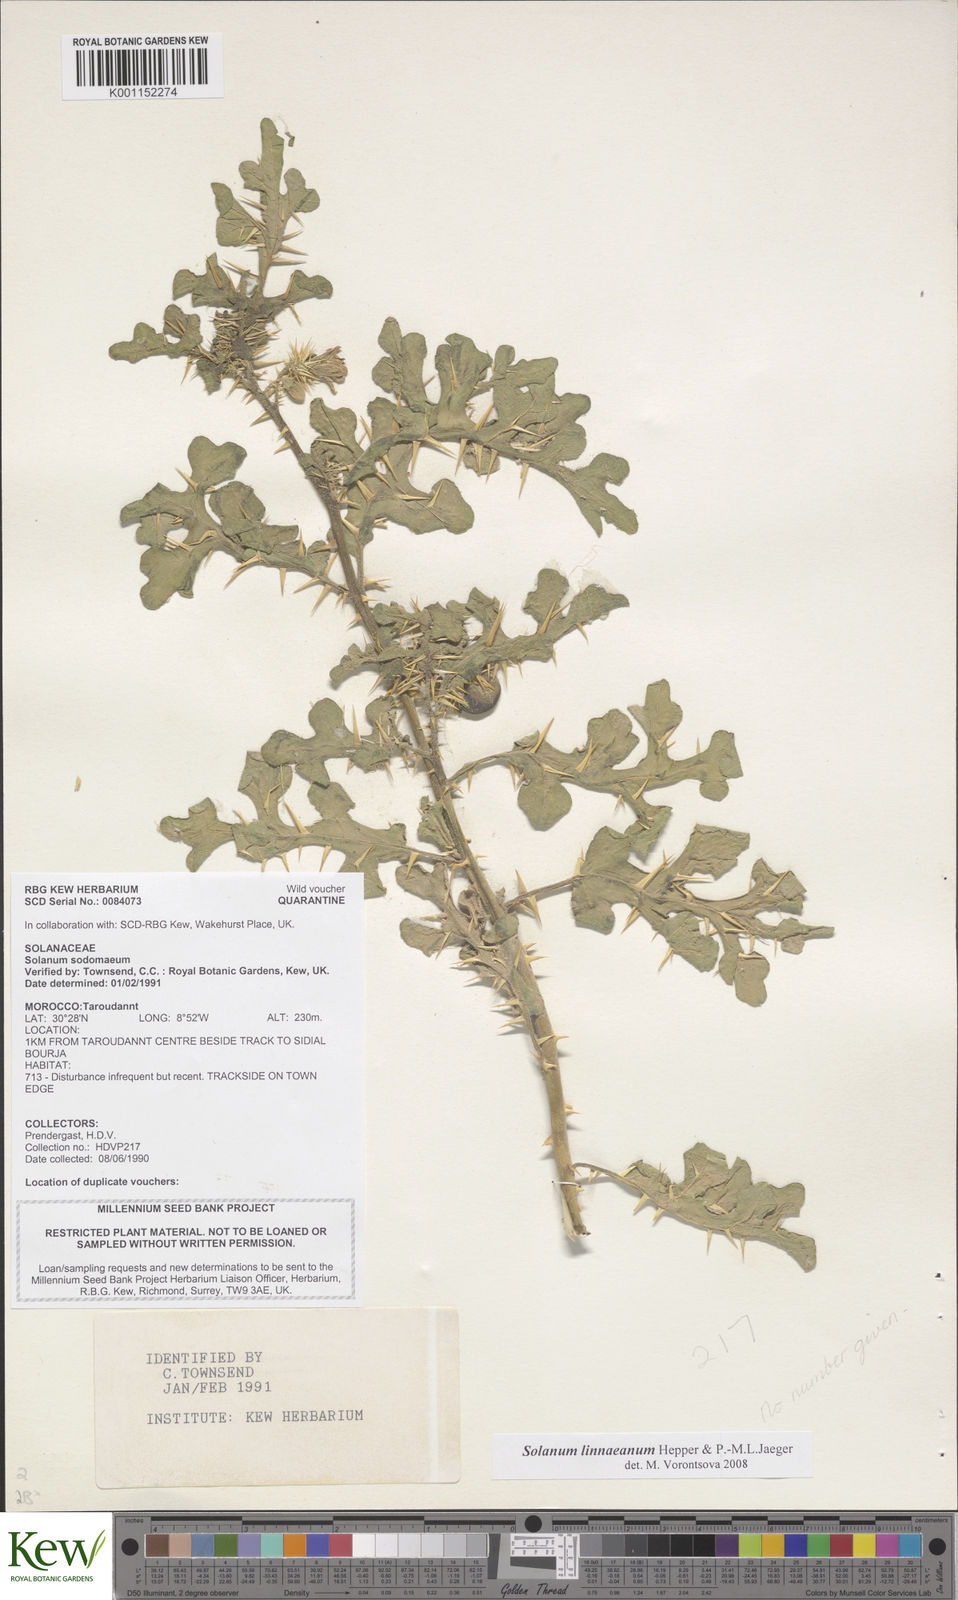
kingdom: Plantae
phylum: Tracheophyta
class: Magnoliopsida
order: Solanales
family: Solanaceae
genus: Solanum
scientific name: Solanum linnaeanum
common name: Nightshade
